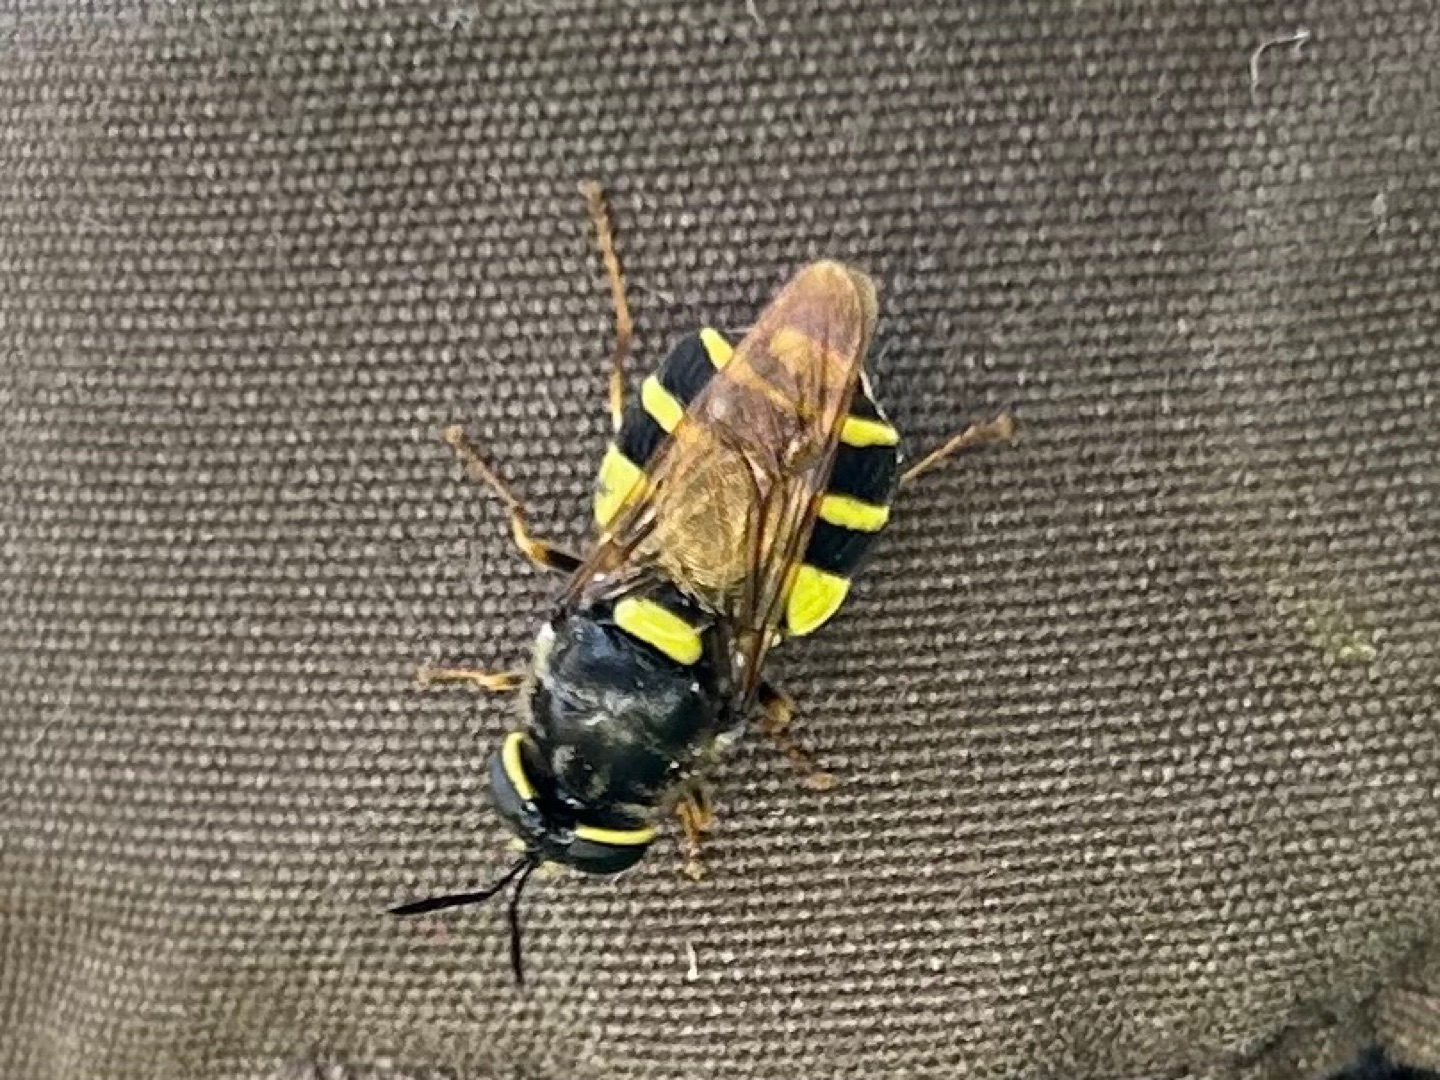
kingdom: Animalia
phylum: Arthropoda
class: Insecta
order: Diptera
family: Stratiomyidae
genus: Stratiomys
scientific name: Stratiomys potamida
